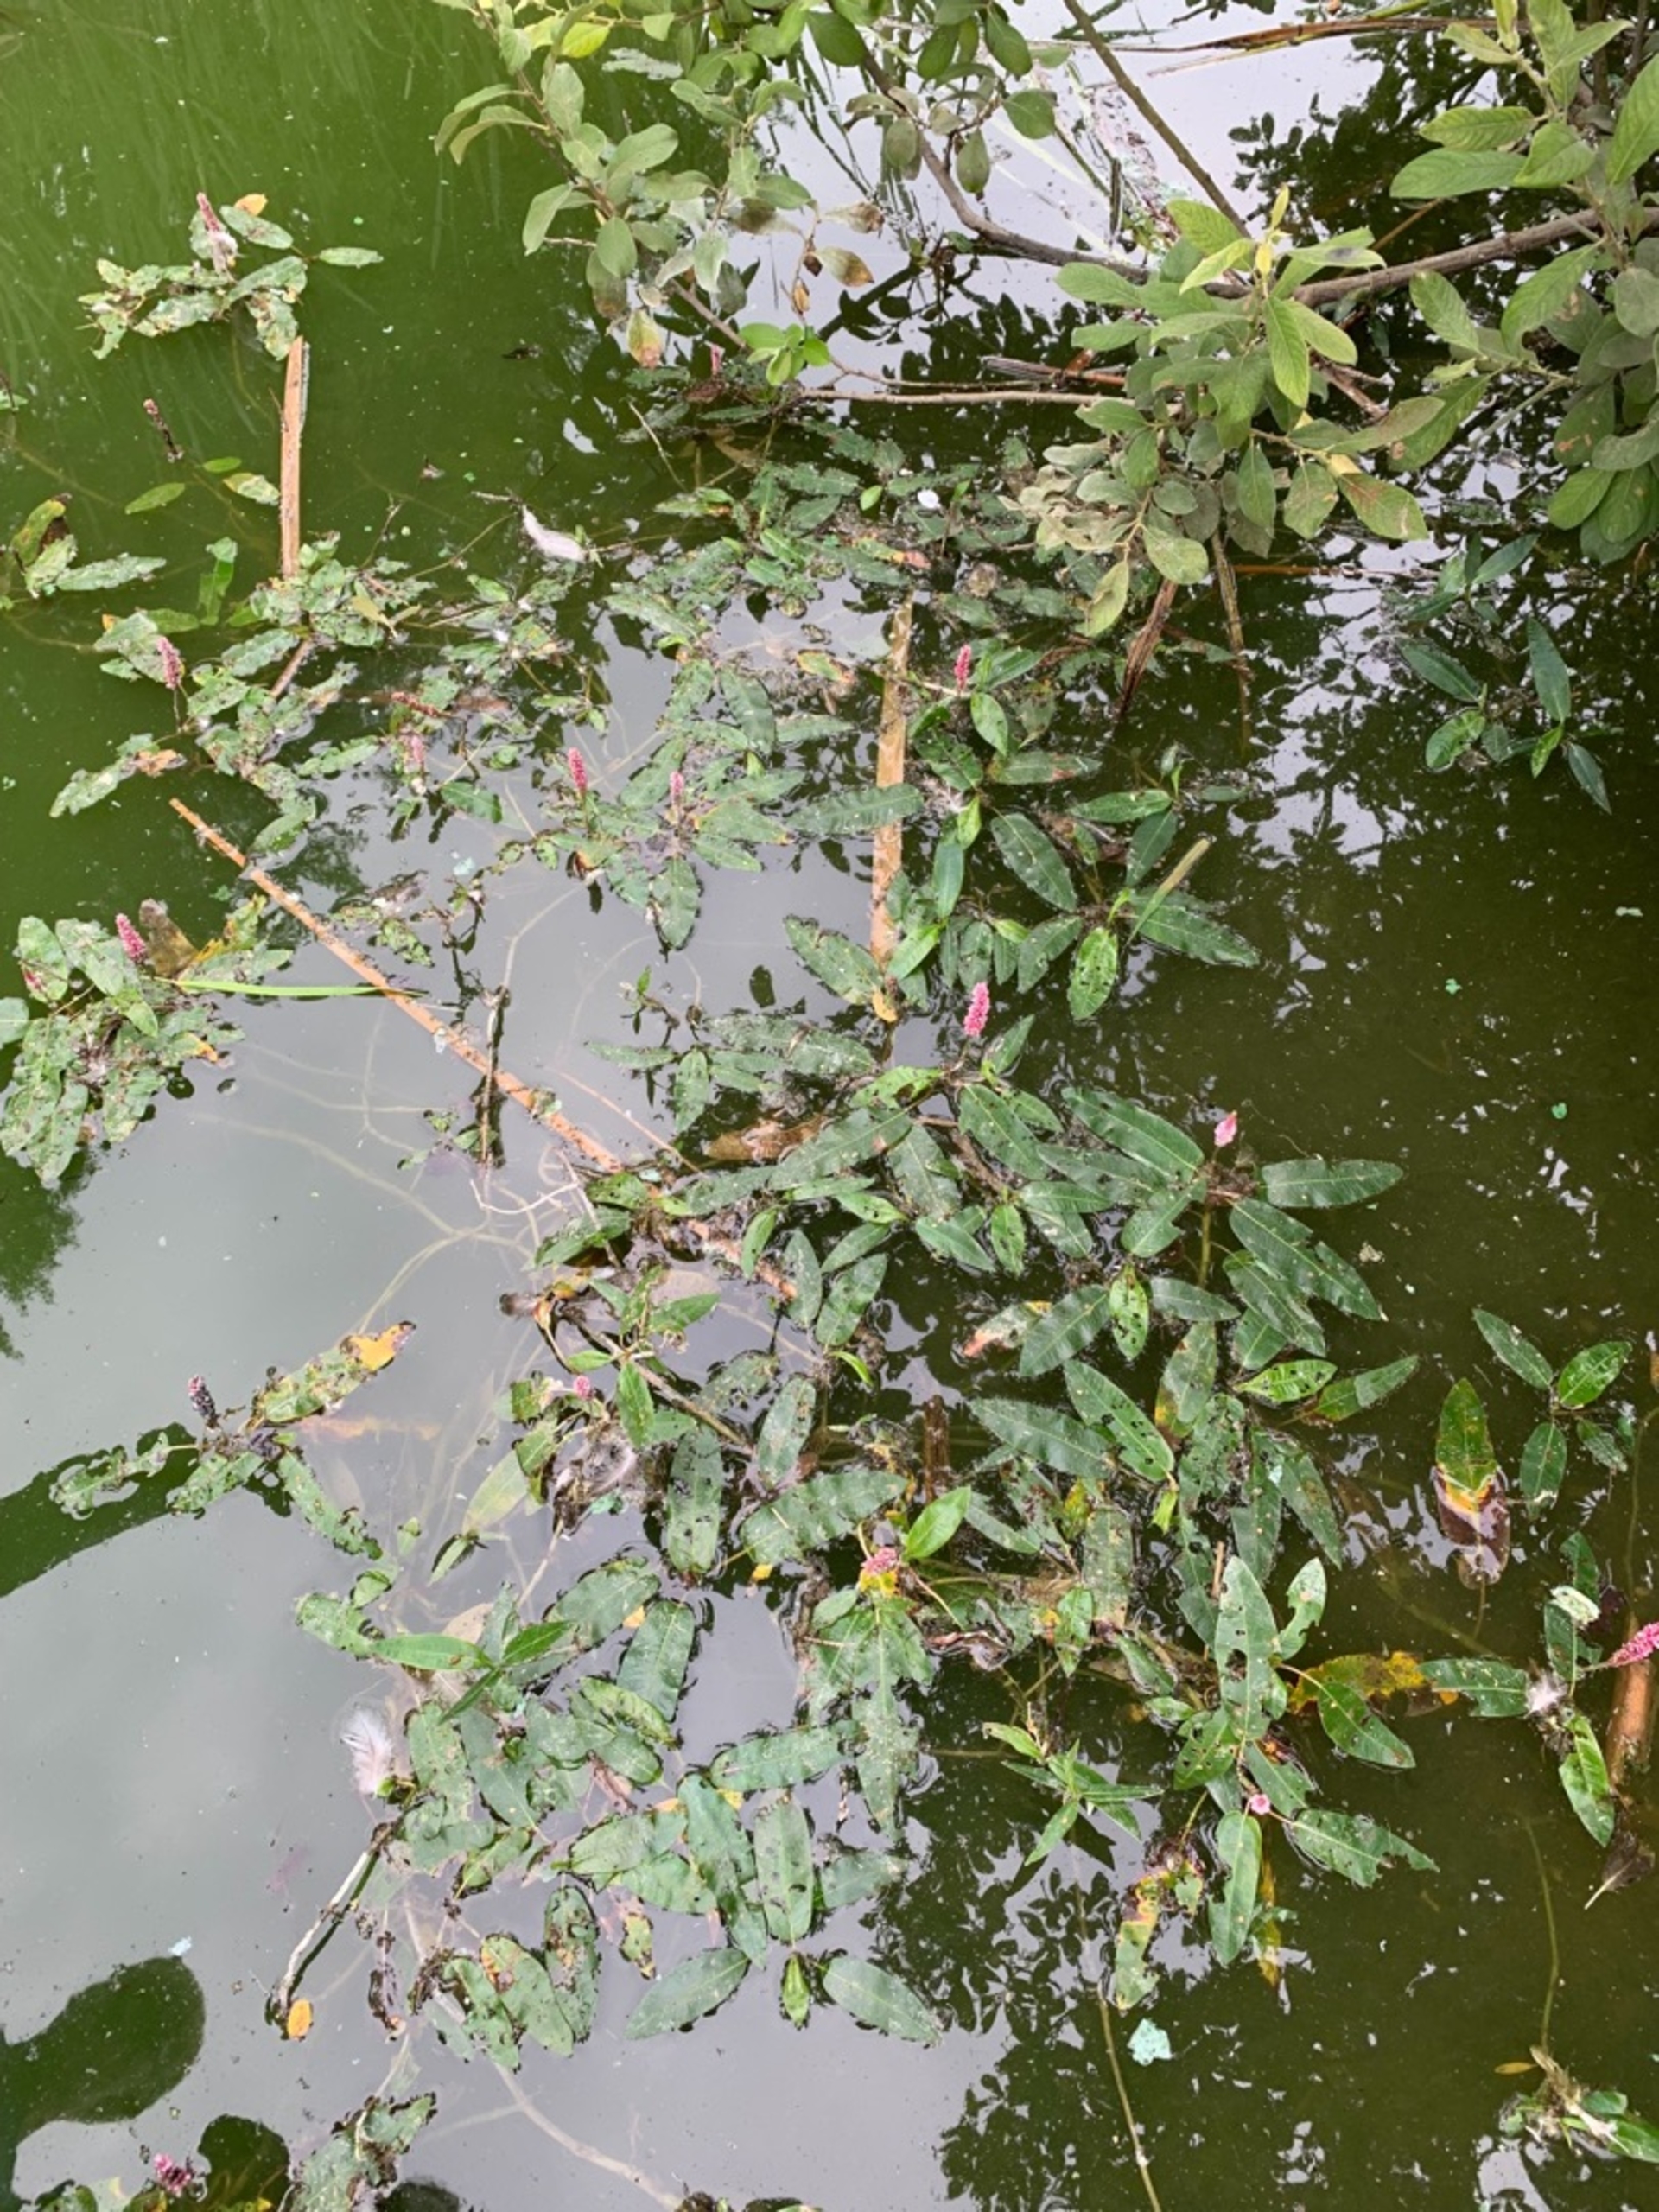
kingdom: Plantae
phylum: Tracheophyta
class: Magnoliopsida
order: Caryophyllales
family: Polygonaceae
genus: Persicaria
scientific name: Persicaria amphibia
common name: Vand-pileurt
